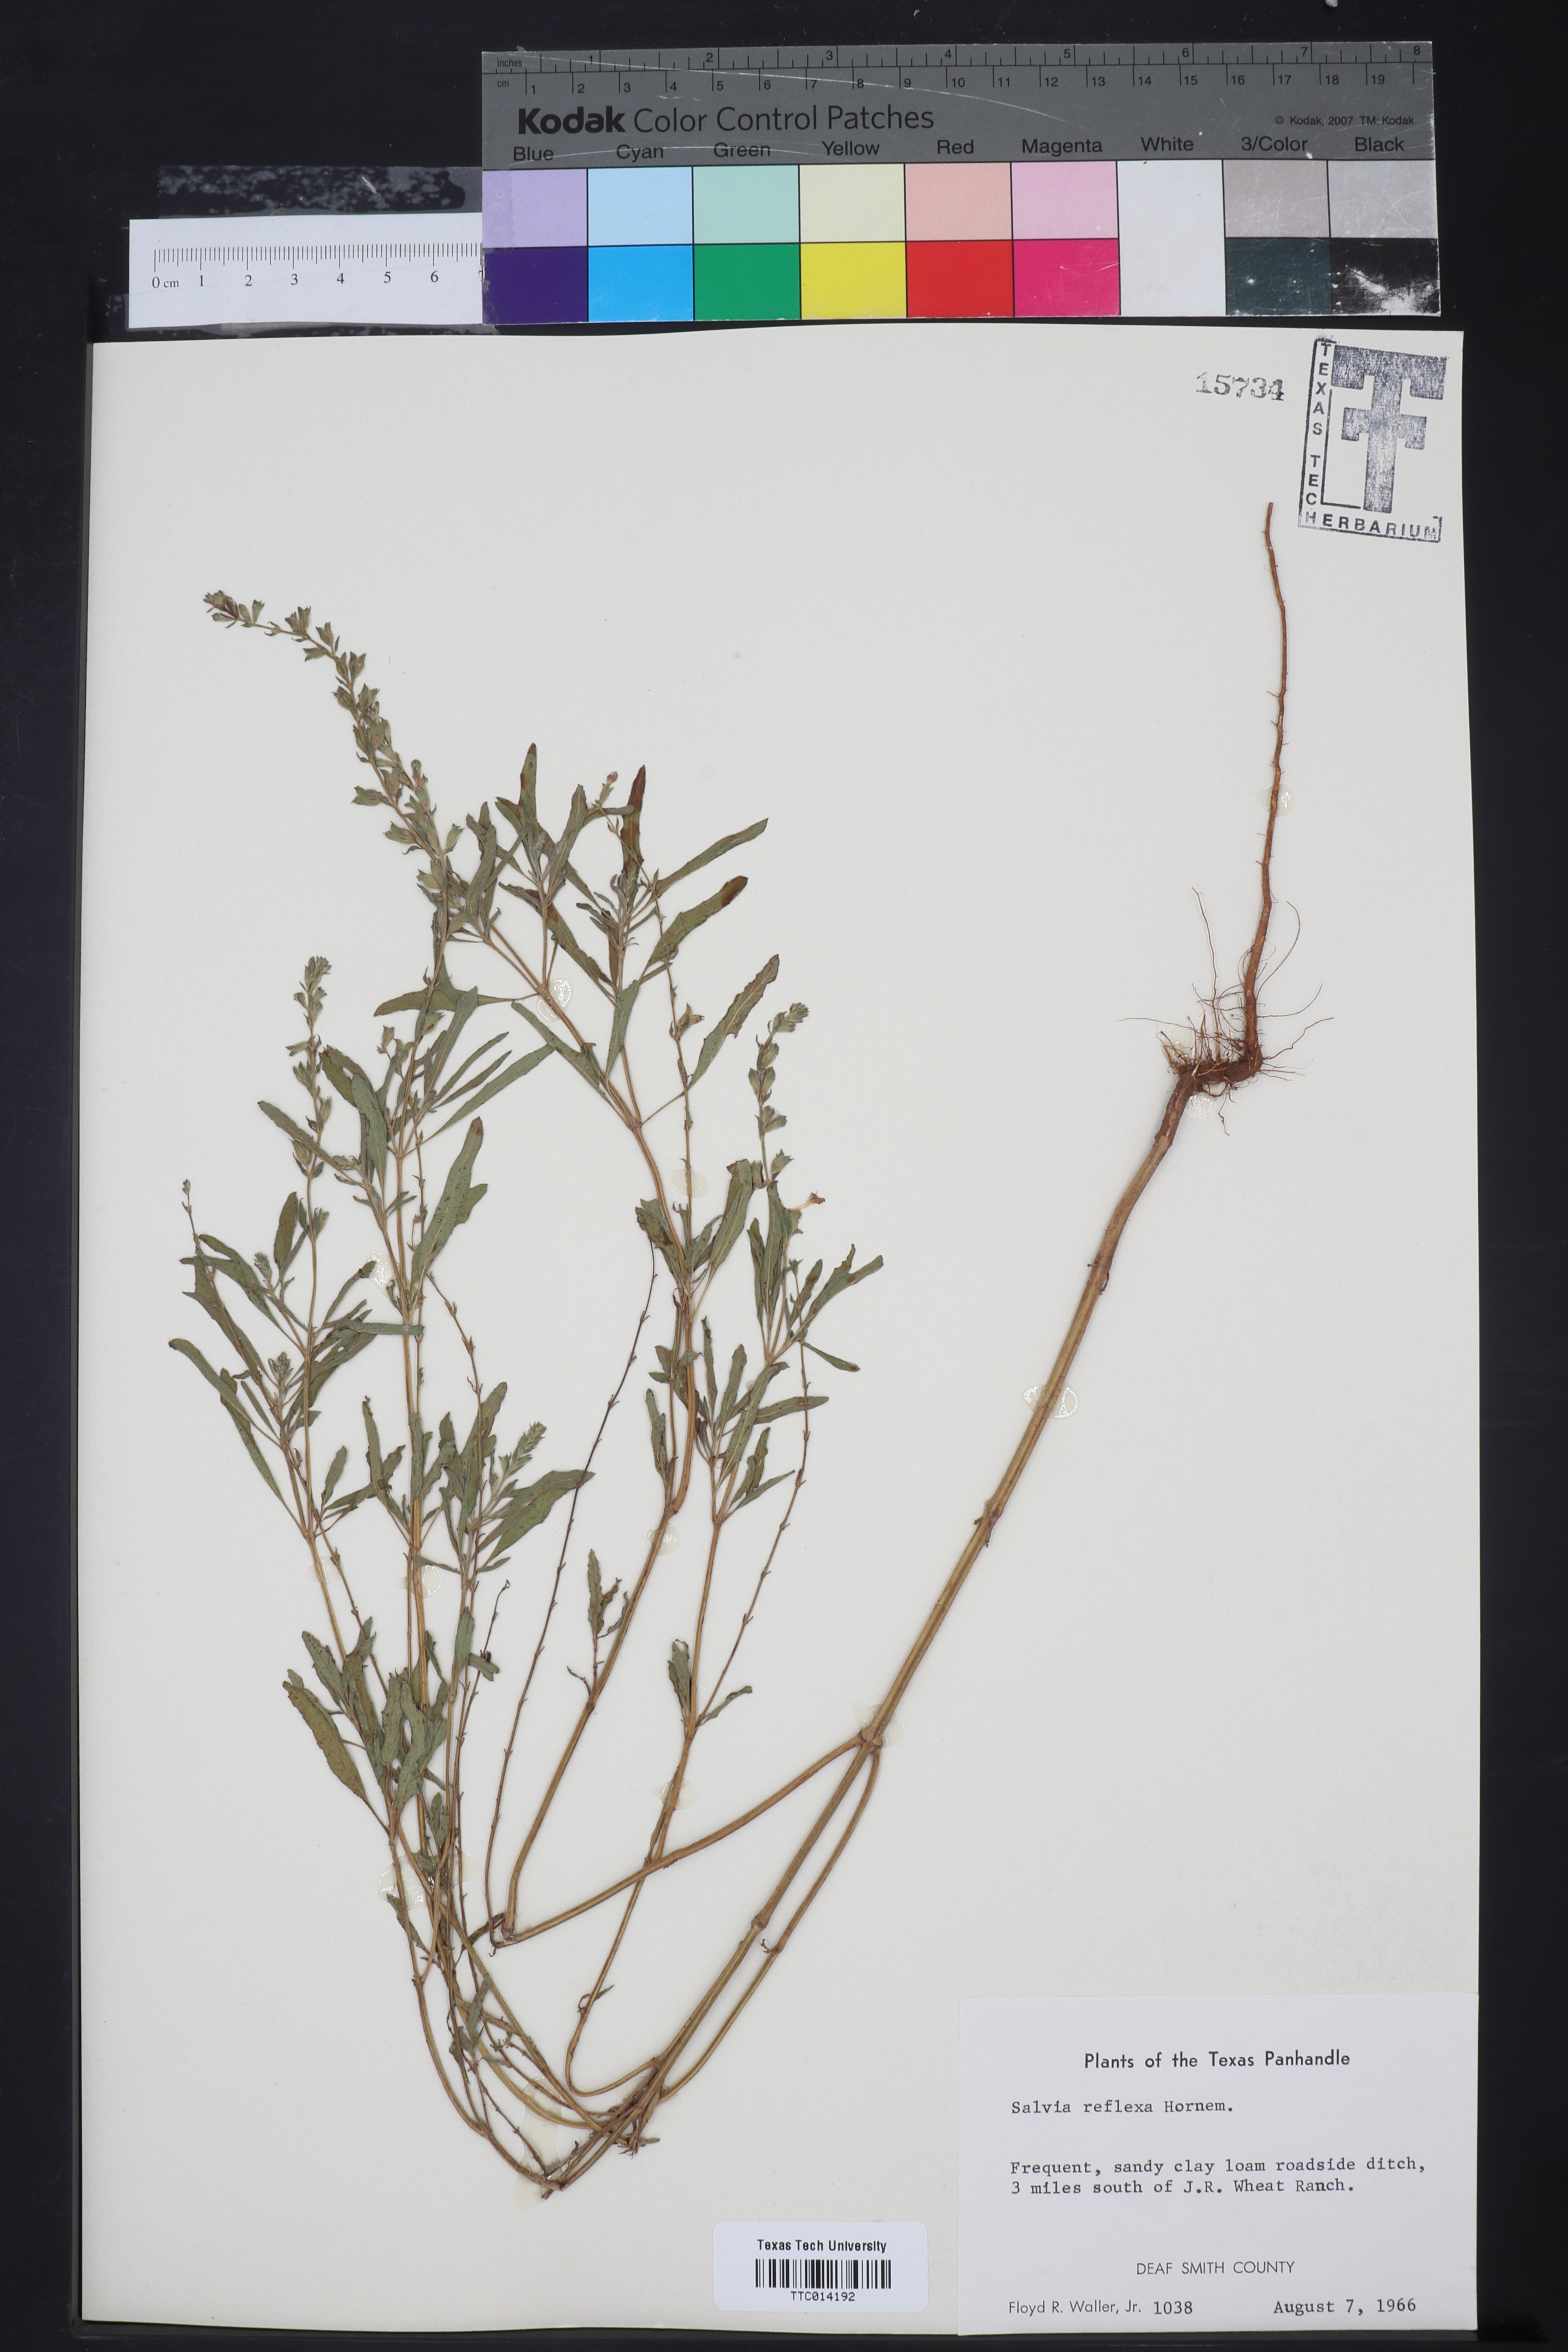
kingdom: Plantae
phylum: Tracheophyta
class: Magnoliopsida
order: Lamiales
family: Lamiaceae
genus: Salvia
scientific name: Salvia reflexa
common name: Mintweed
